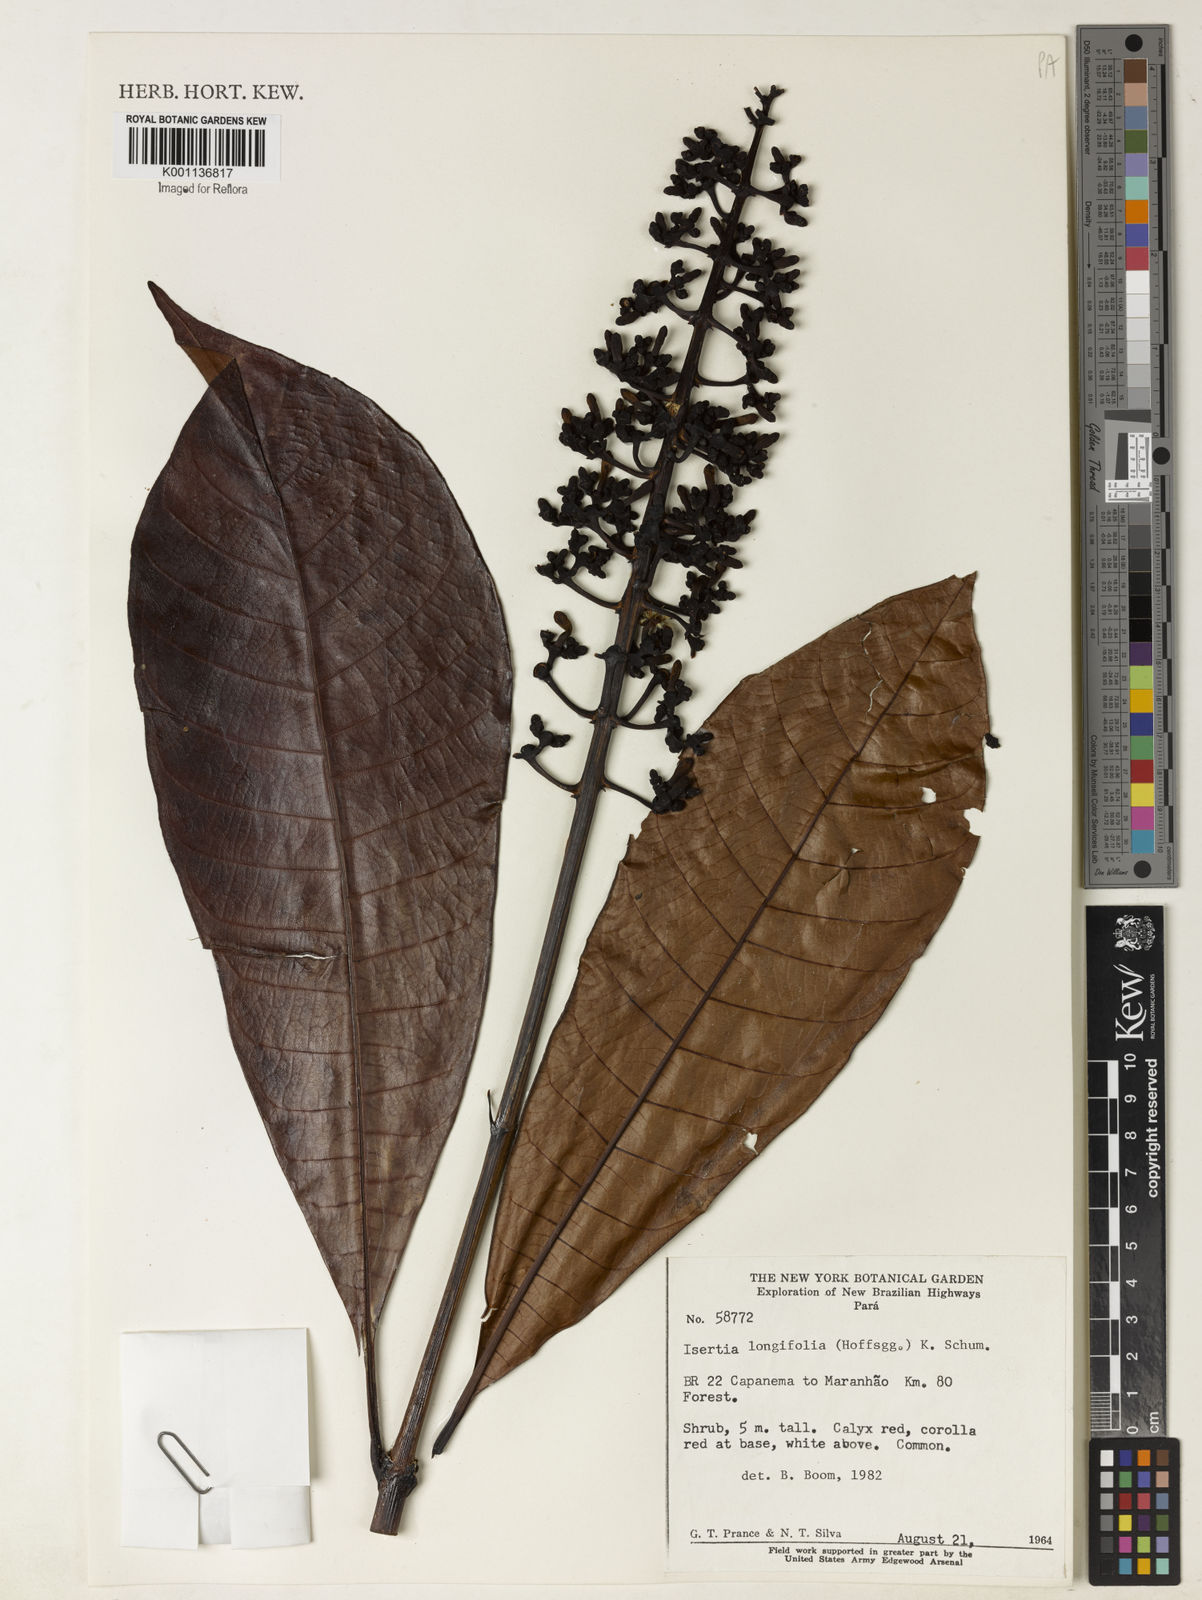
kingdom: Plantae
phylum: Tracheophyta
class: Magnoliopsida
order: Gentianales
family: Rubiaceae
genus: Isertia
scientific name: Isertia longifolia
